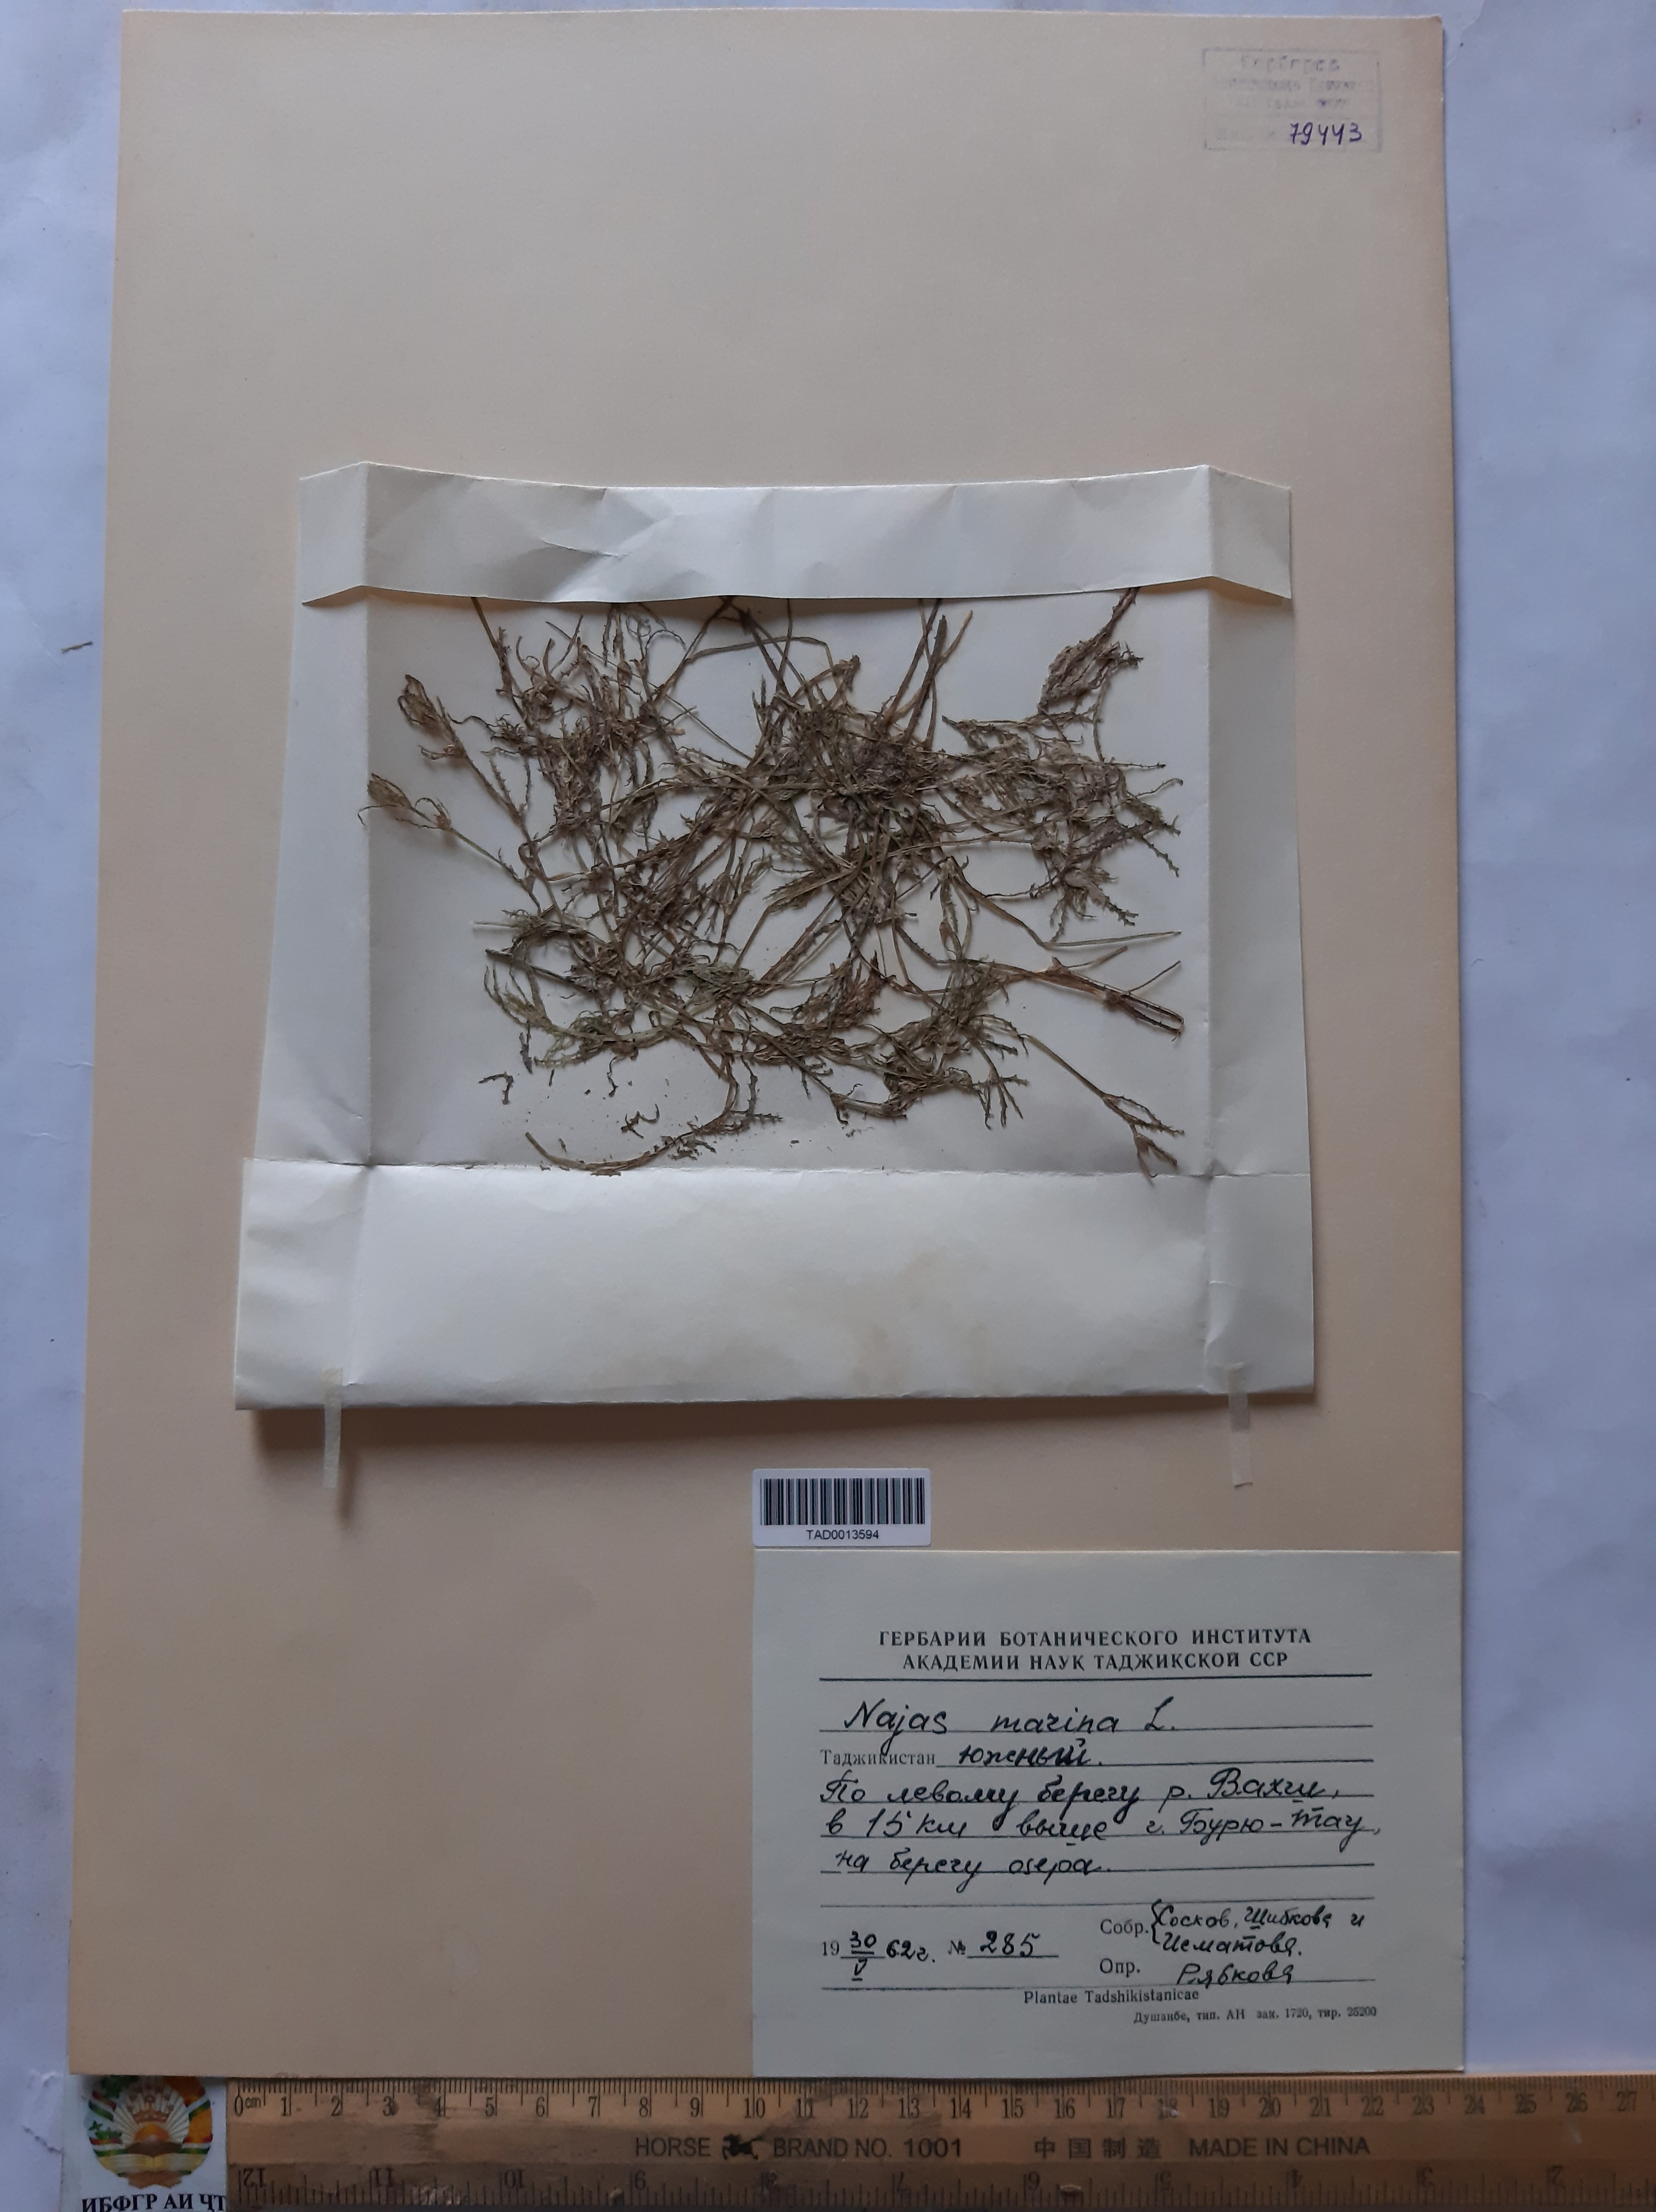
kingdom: Plantae
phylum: Tracheophyta
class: Liliopsida
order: Alismatales
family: Hydrocharitaceae
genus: Najas
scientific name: Najas marina
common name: Holly-leaved naiad
